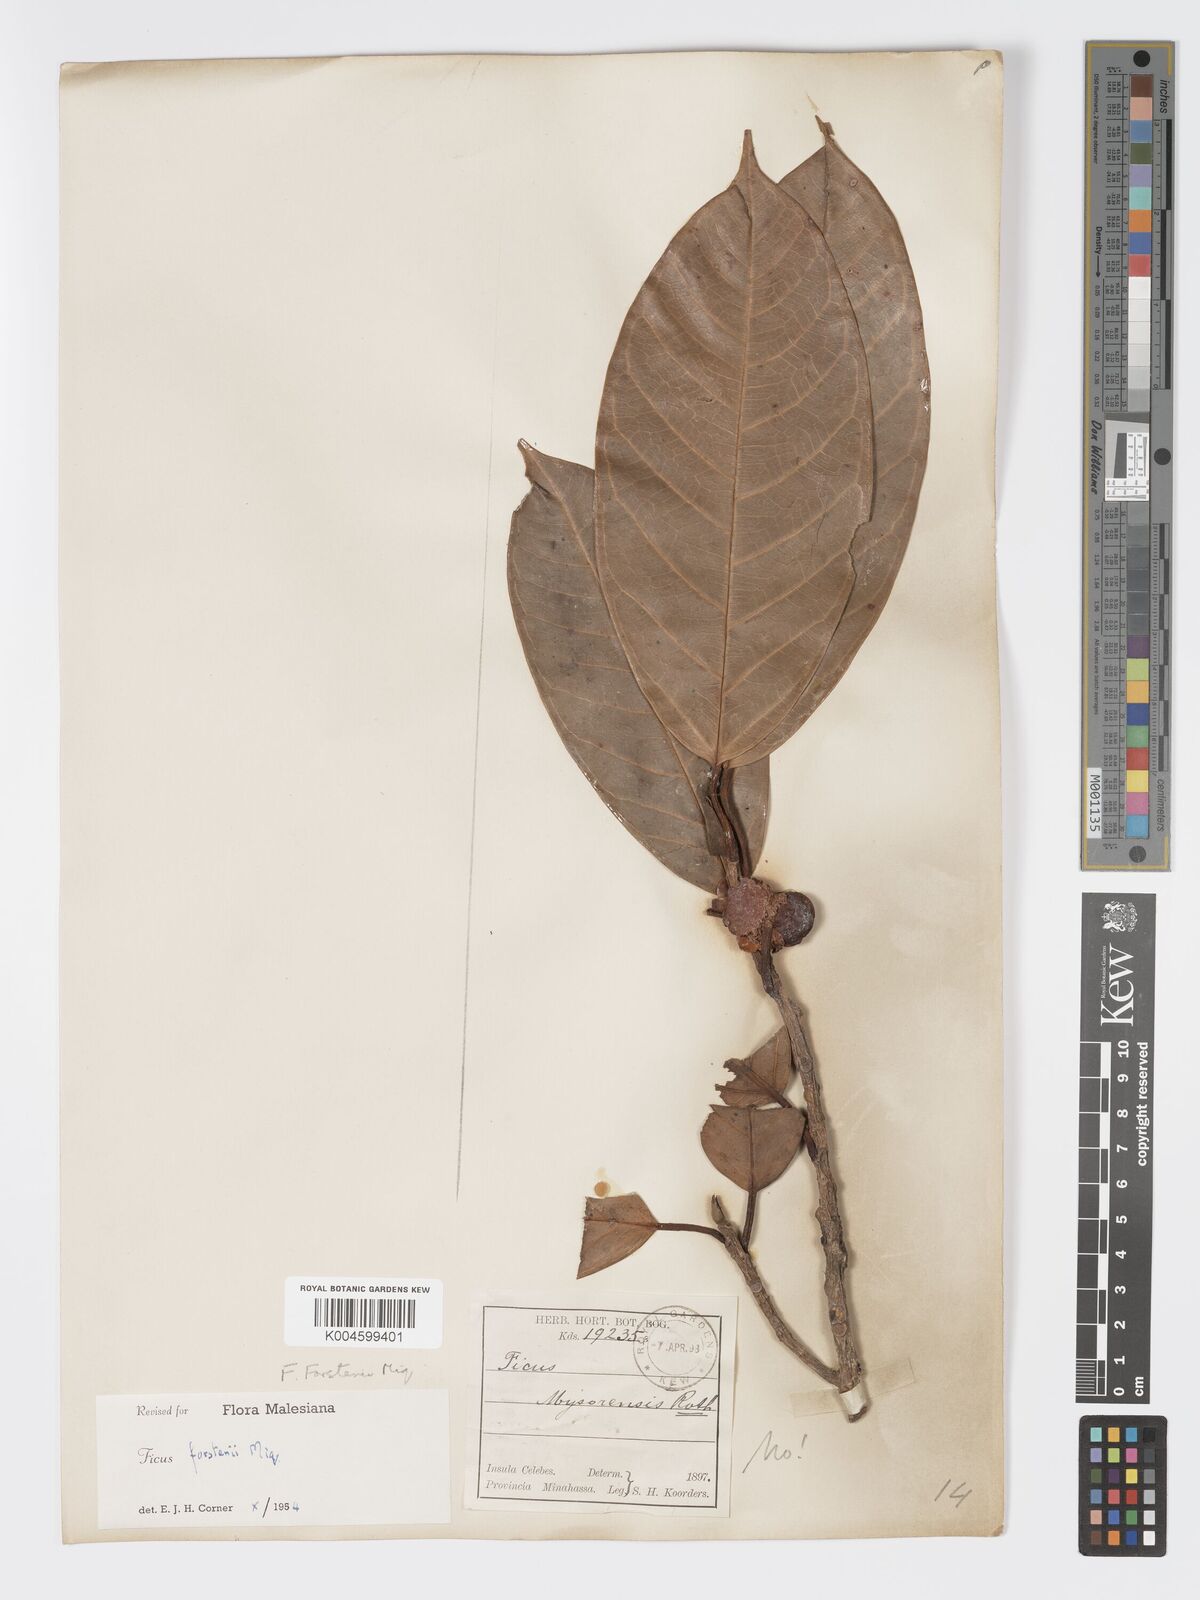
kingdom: Plantae
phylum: Tracheophyta
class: Magnoliopsida
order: Rosales
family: Moraceae
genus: Ficus
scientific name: Ficus forstenii
